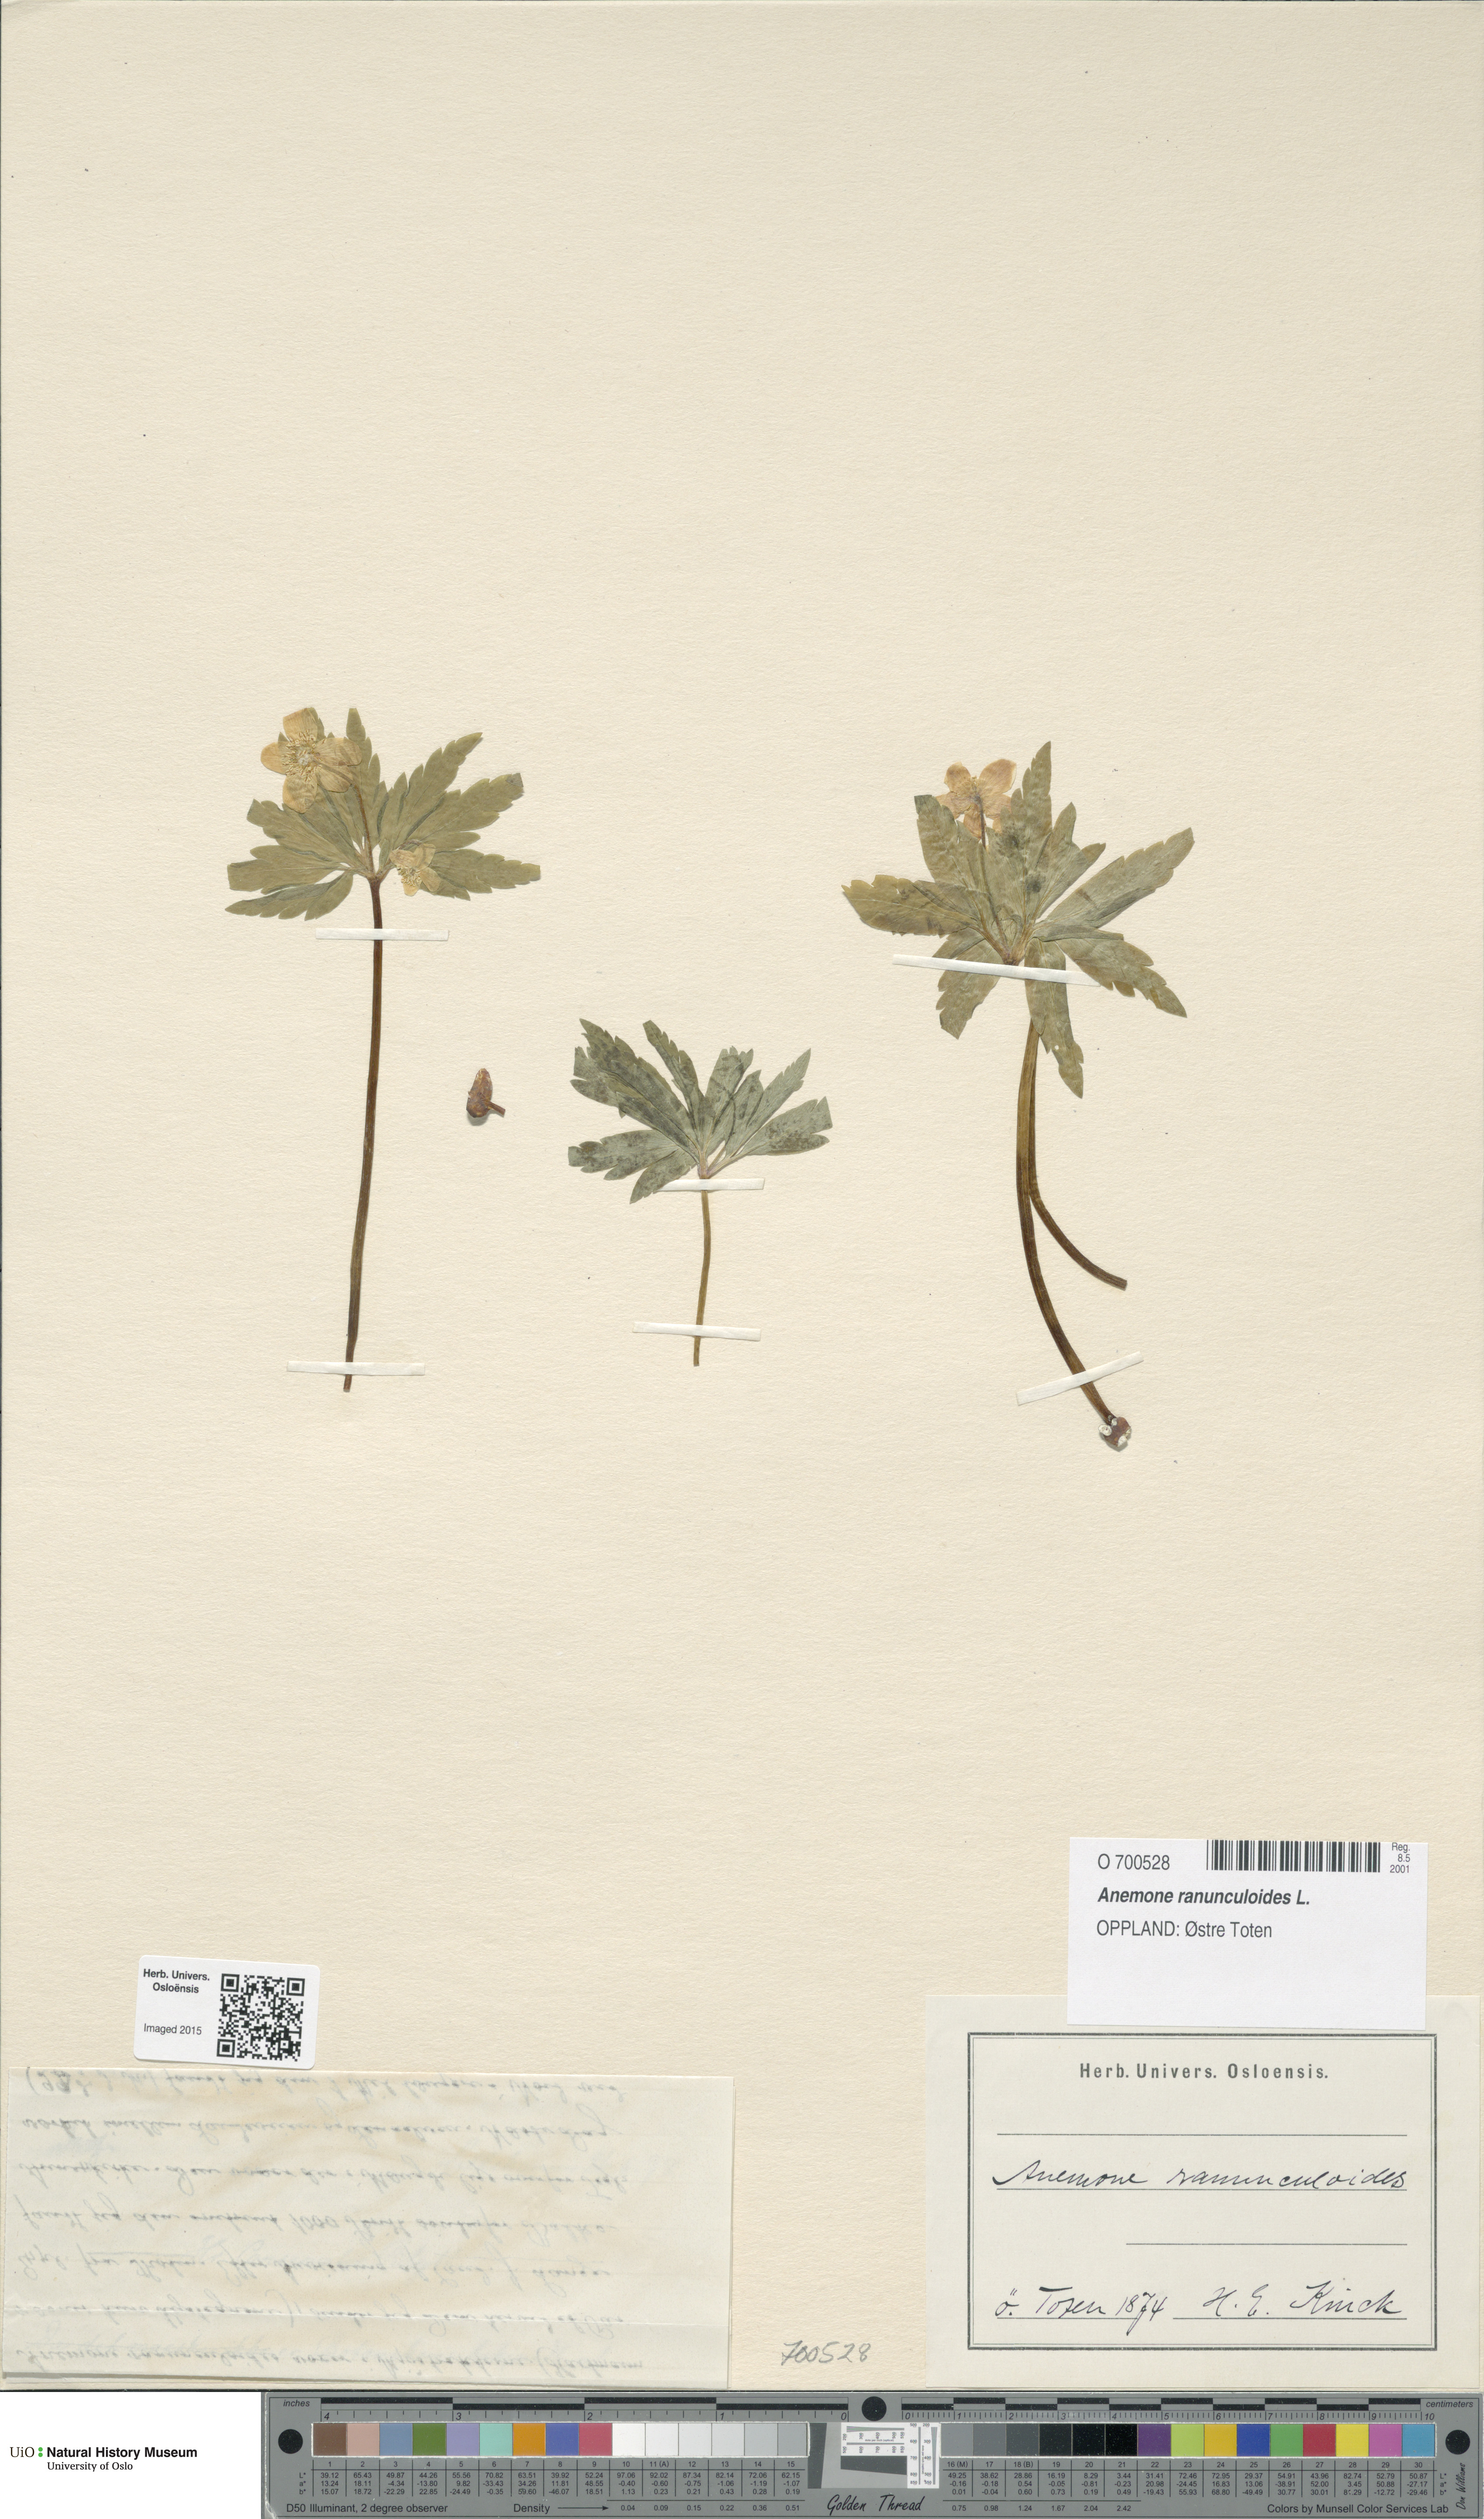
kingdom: Plantae
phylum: Tracheophyta
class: Magnoliopsida
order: Ranunculales
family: Ranunculaceae
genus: Anemone
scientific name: Anemone ranunculoides
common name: Yellow anemone
